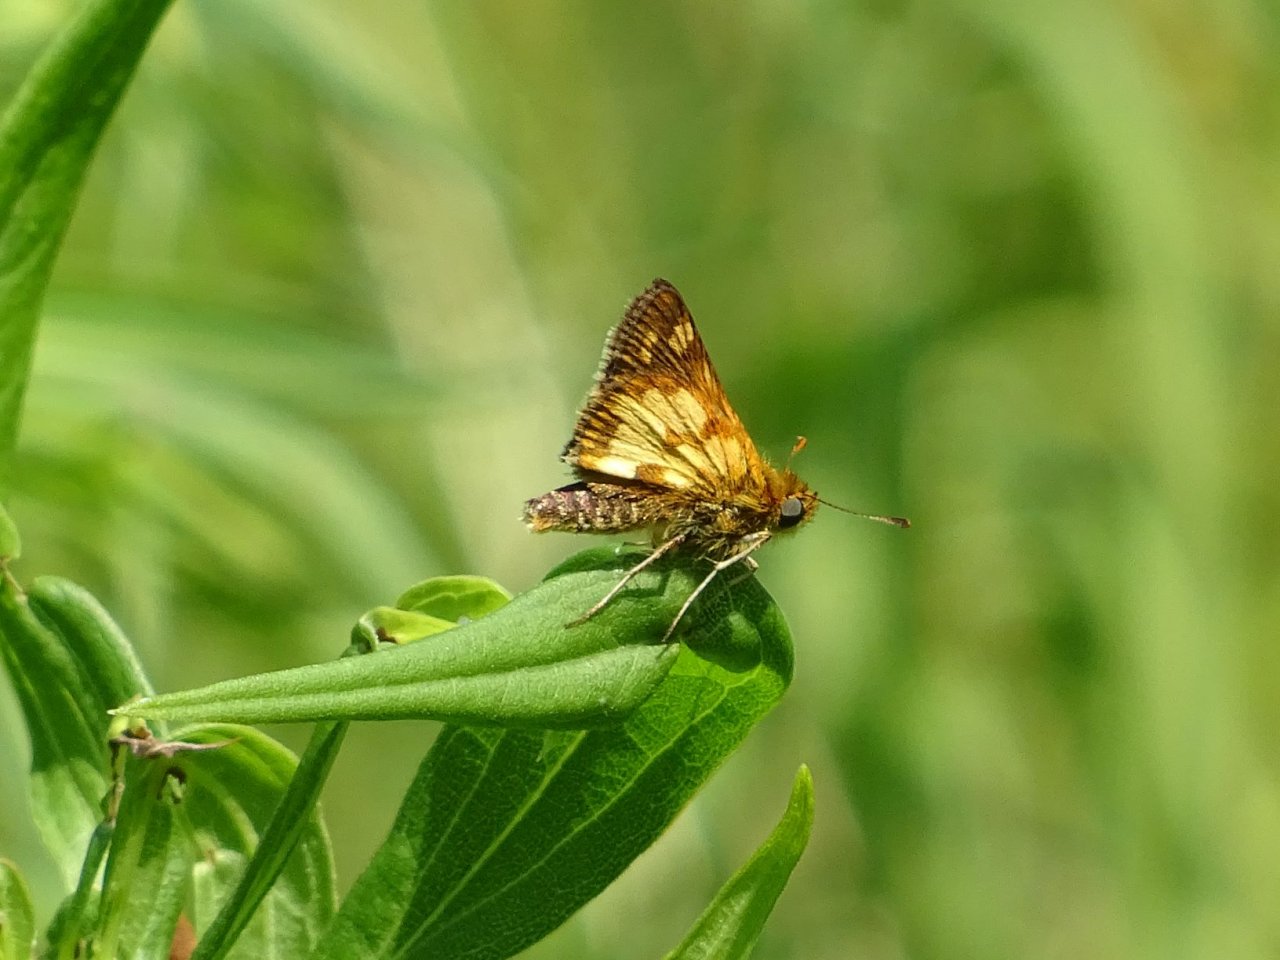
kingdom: Animalia
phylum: Arthropoda
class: Insecta
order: Lepidoptera
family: Hesperiidae
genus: Polites
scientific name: Polites coras
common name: Peck's Skipper
